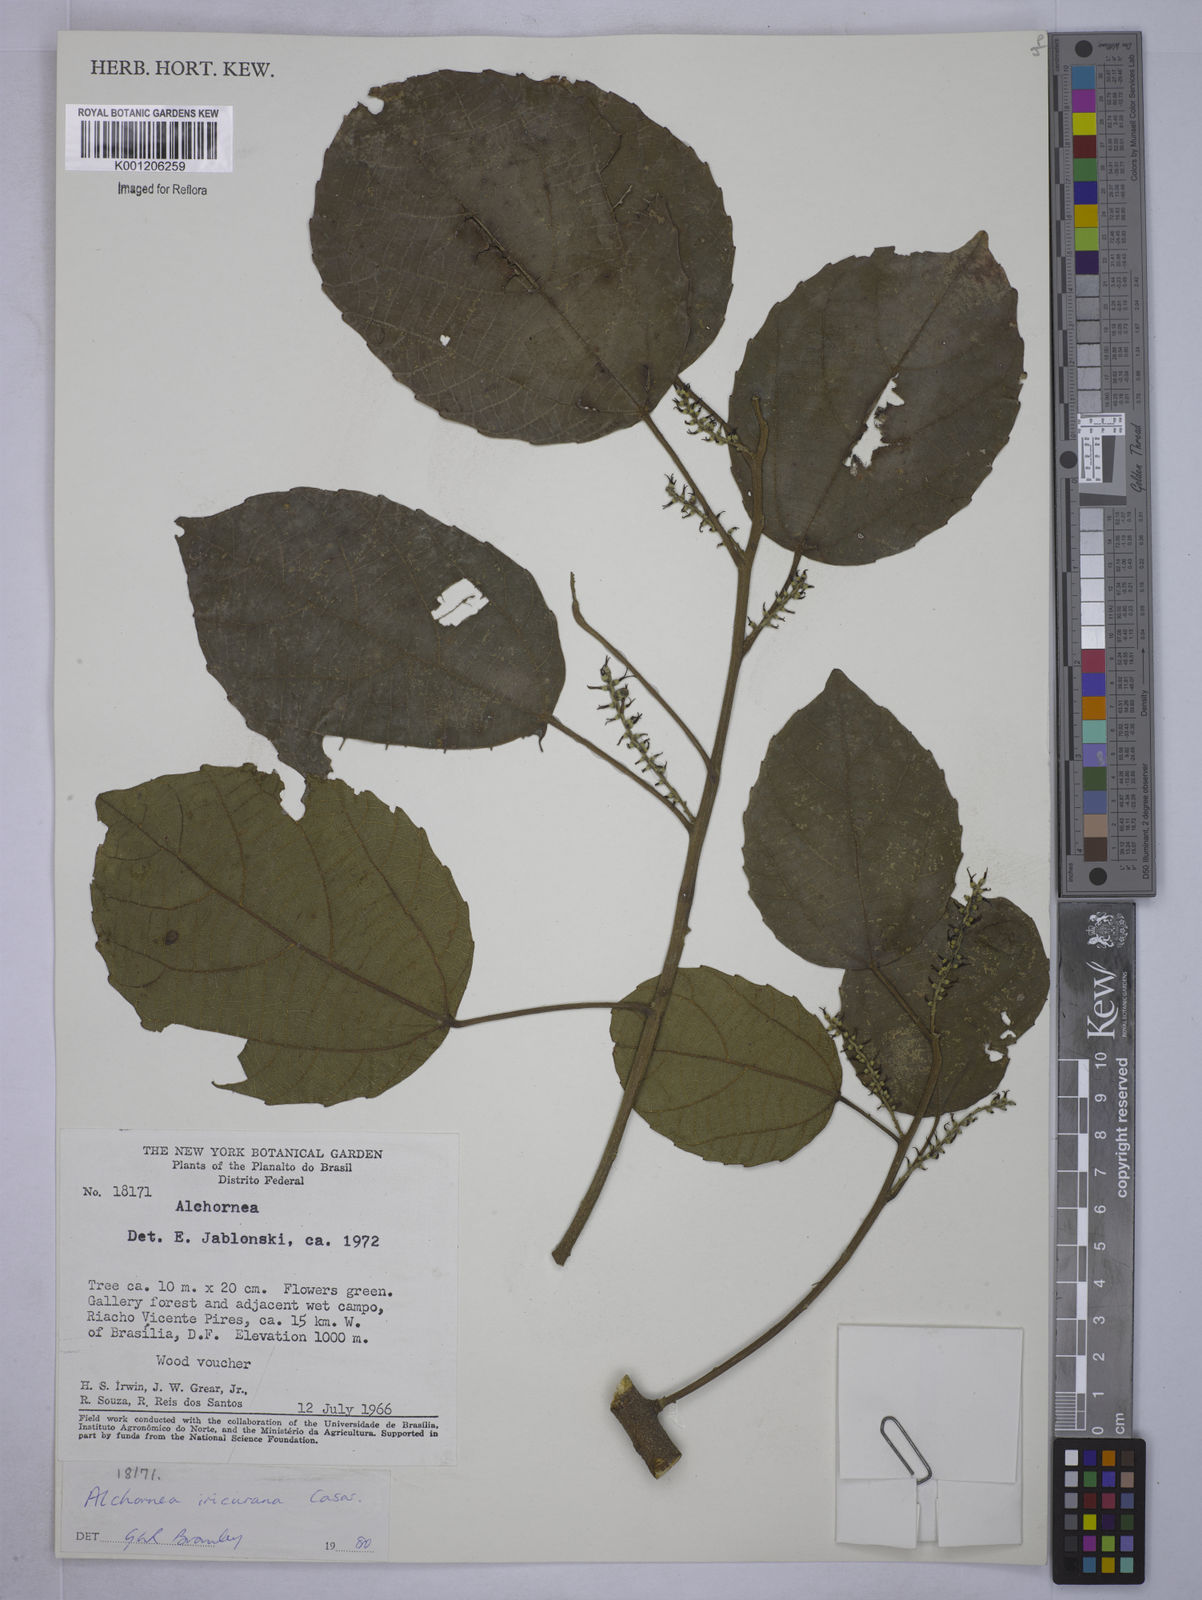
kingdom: Plantae
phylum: Tracheophyta
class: Magnoliopsida
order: Malpighiales
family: Euphorbiaceae
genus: Alchornea
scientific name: Alchornea glandulosa
